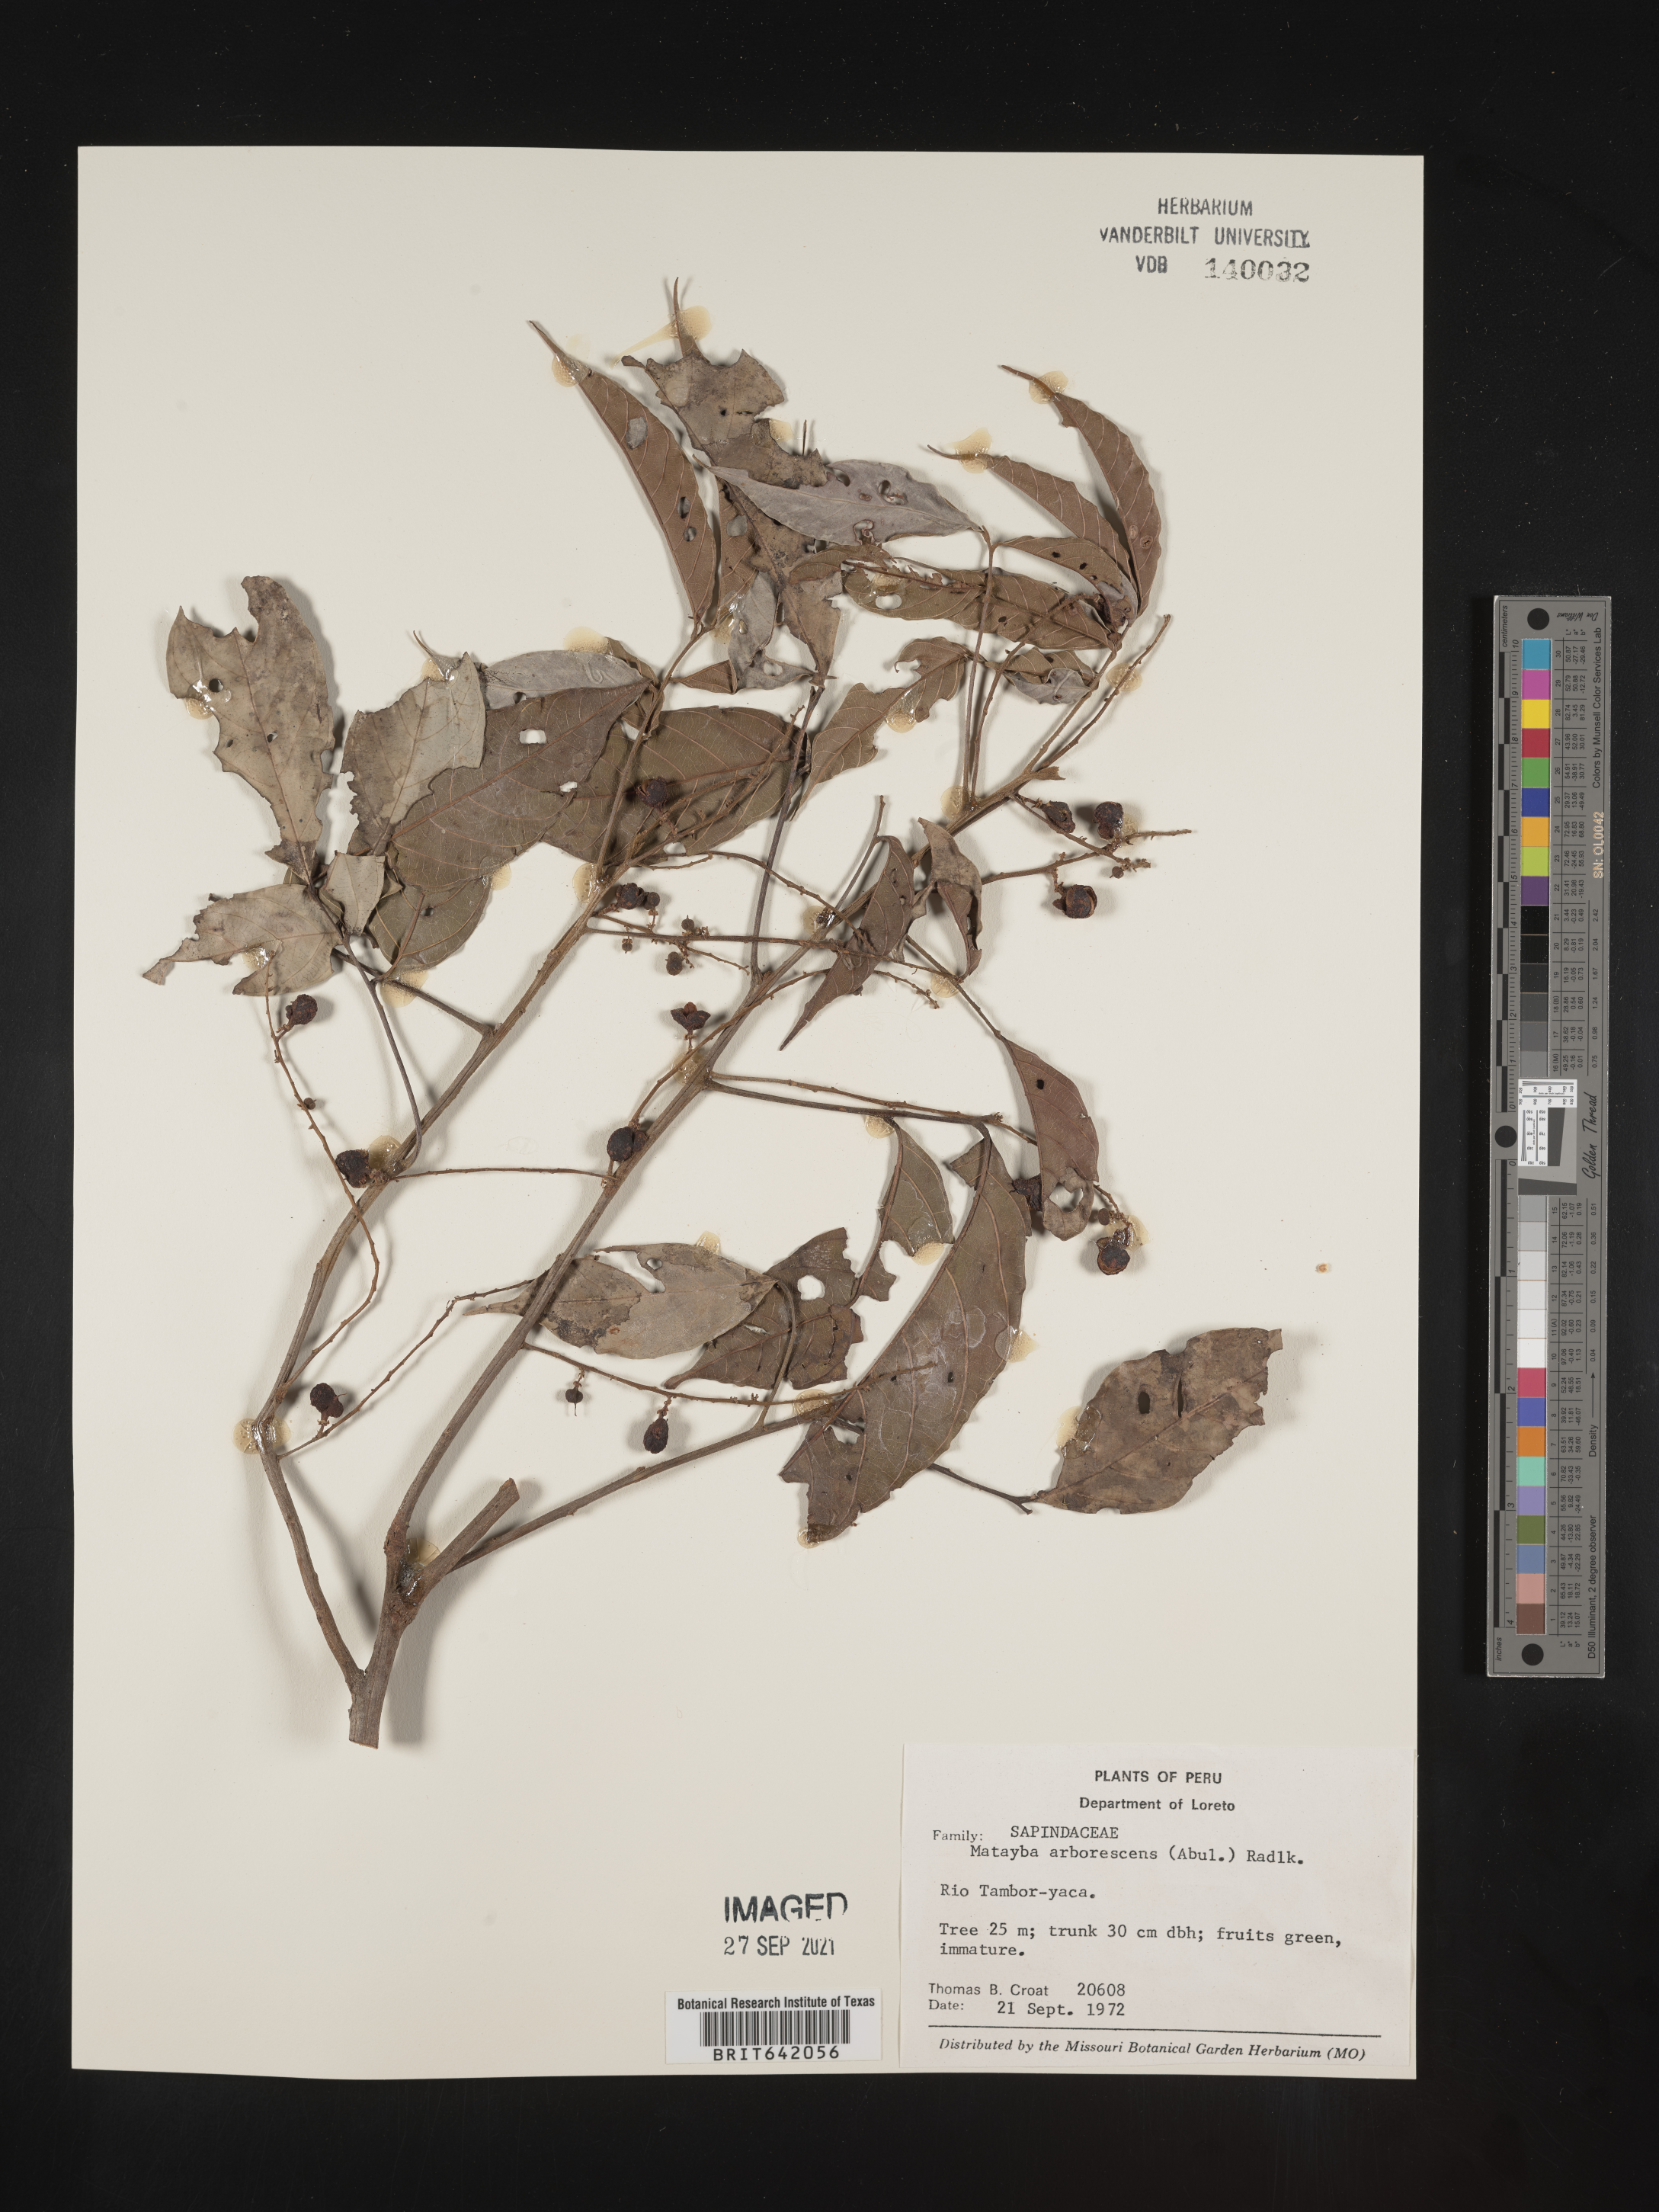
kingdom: Plantae
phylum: Tracheophyta
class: Magnoliopsida
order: Sapindales
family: Sapindaceae
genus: Matayba
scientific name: Matayba
